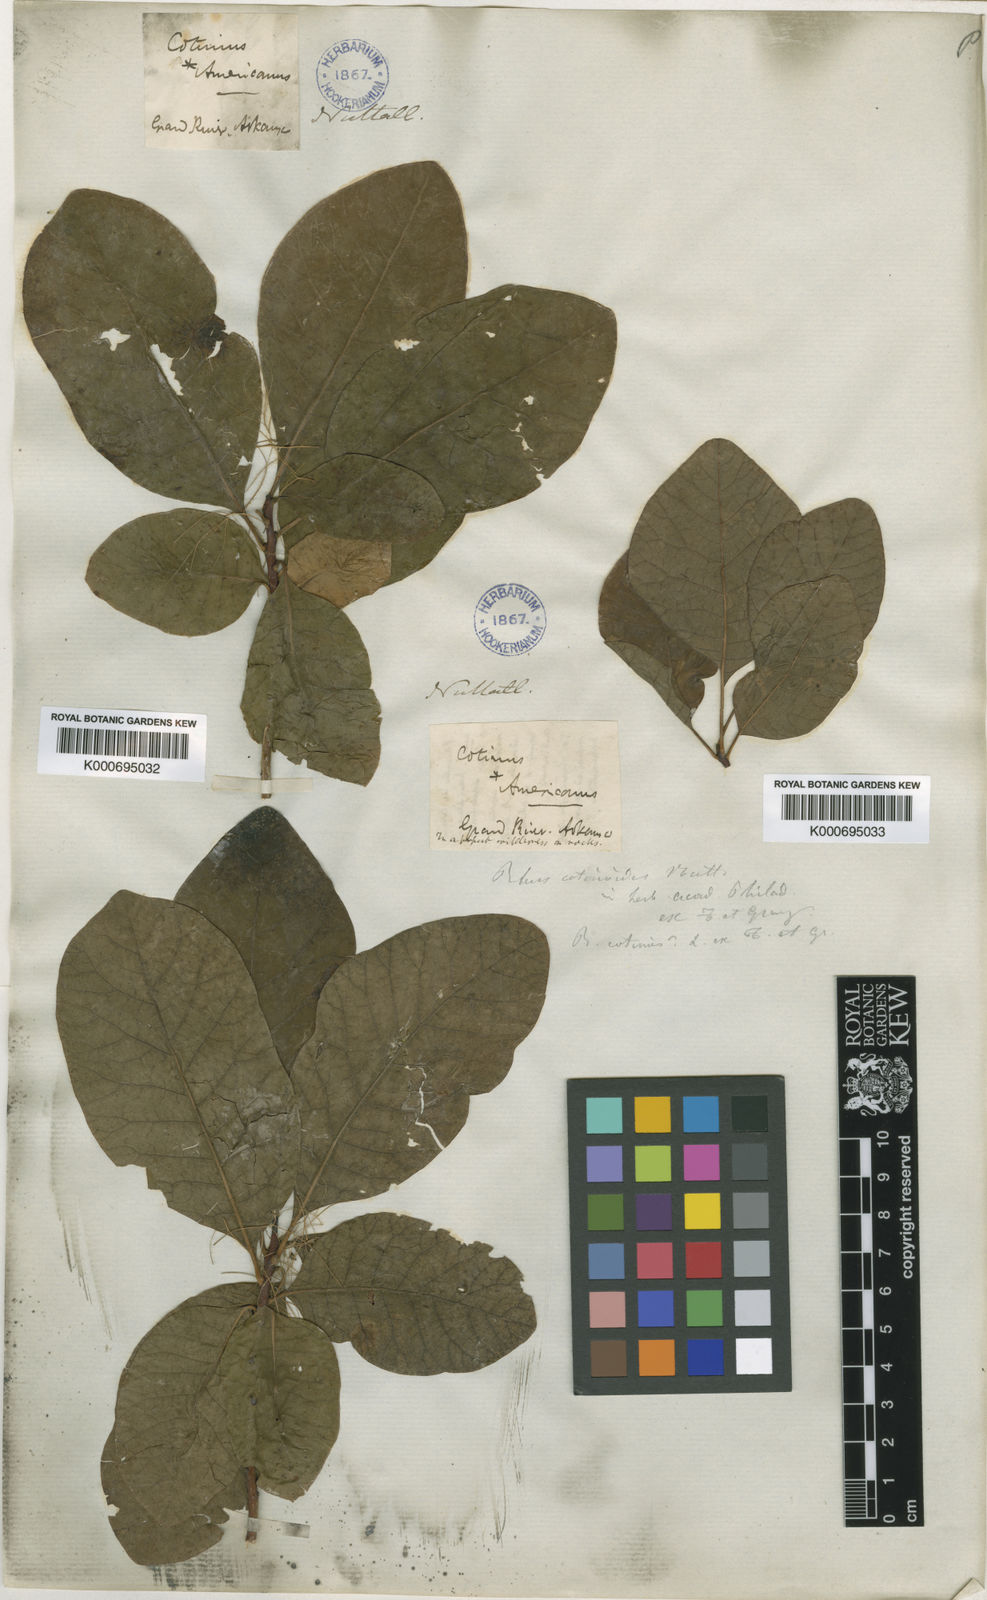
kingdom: Plantae
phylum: Tracheophyta
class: Magnoliopsida
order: Sapindales
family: Anacardiaceae
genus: Cotinus
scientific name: Cotinus obovatus
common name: Chittamwood
